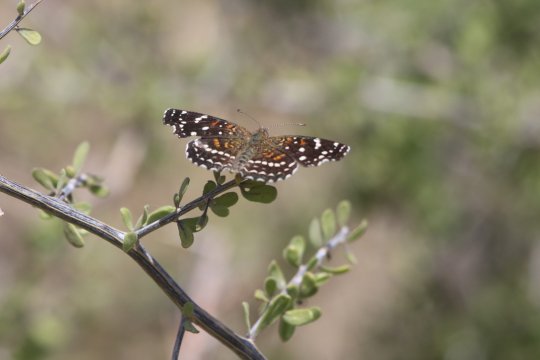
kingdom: Animalia
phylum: Arthropoda
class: Insecta
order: Lepidoptera
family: Nymphalidae
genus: Anthanassa
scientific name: Anthanassa texana
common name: Texan Crescent
